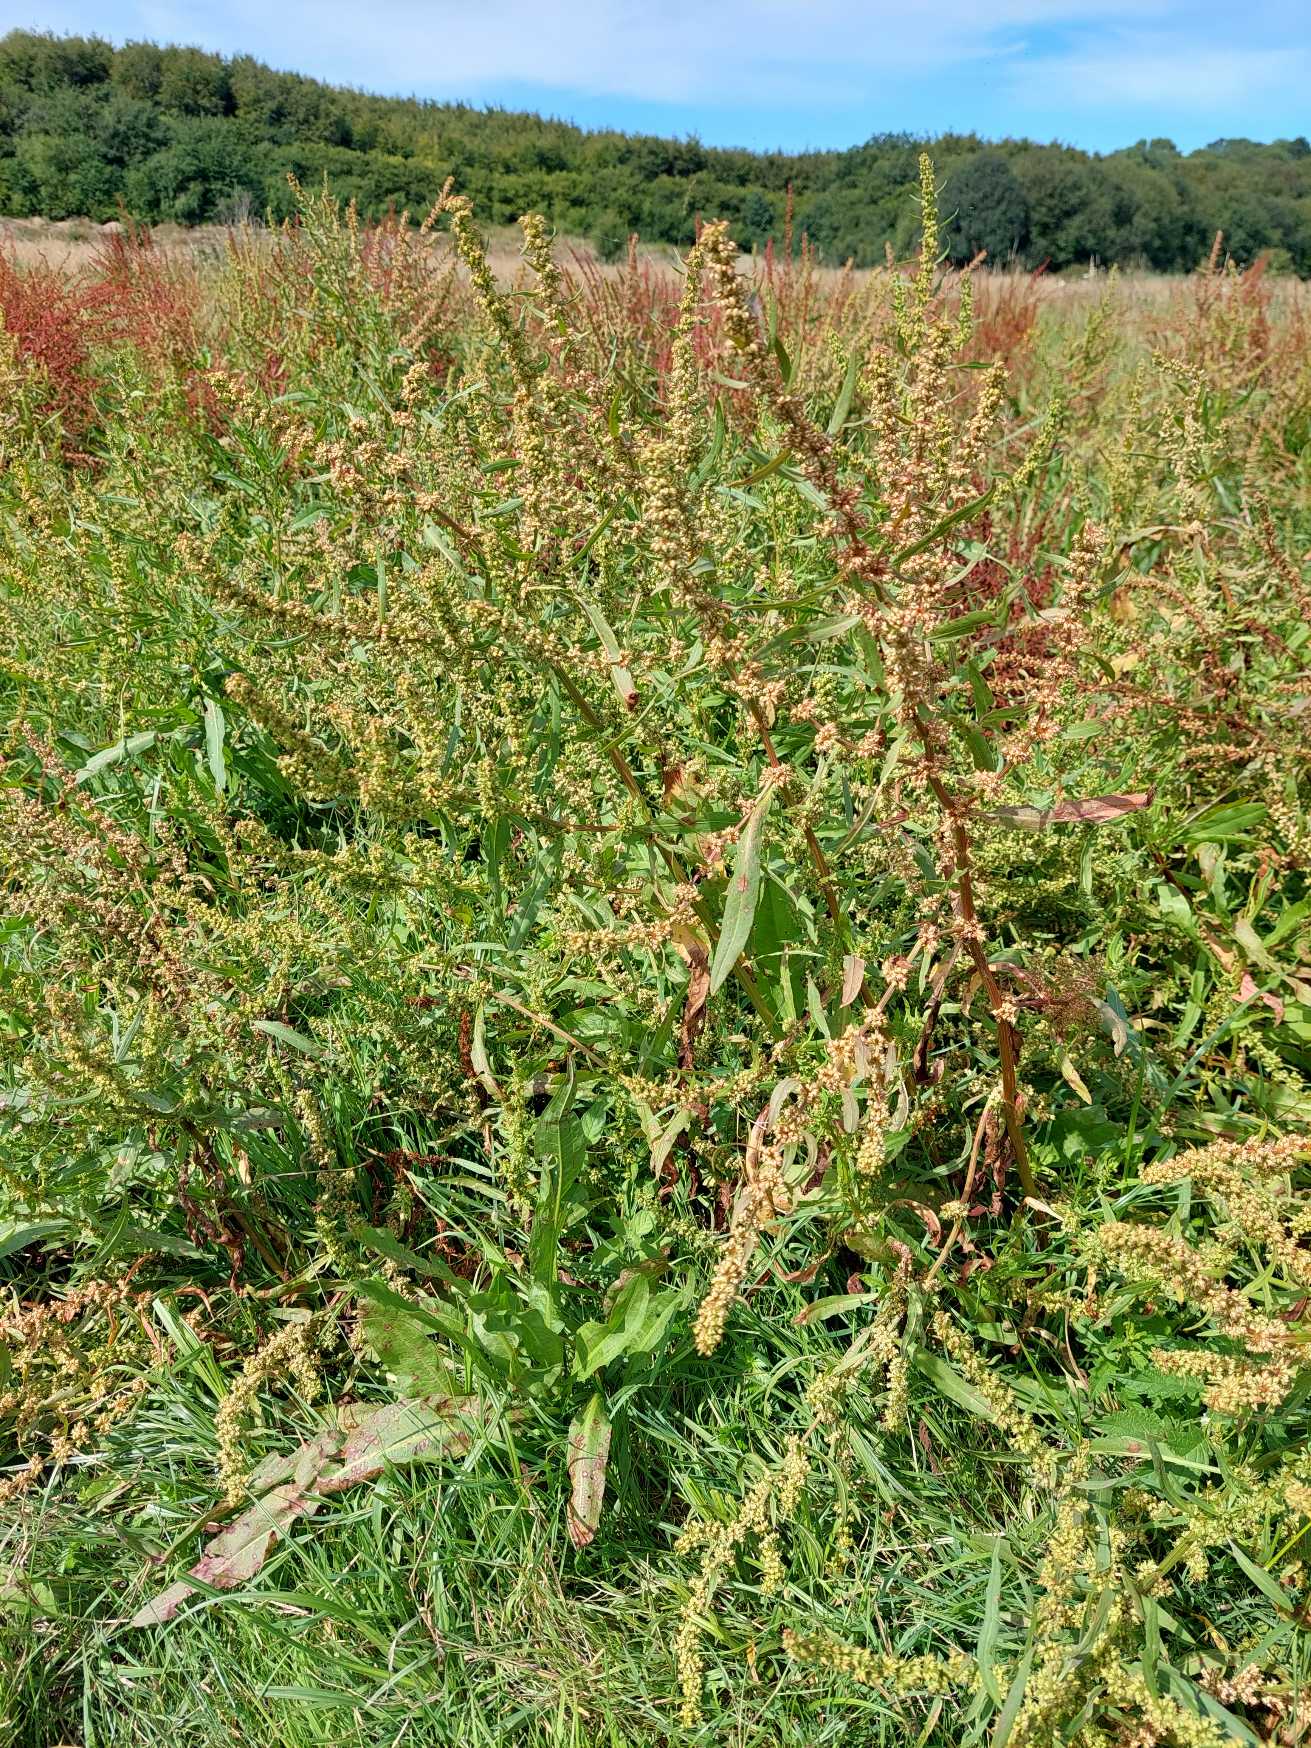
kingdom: Plantae
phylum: Tracheophyta
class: Magnoliopsida
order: Caryophyllales
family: Polygonaceae
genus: Rumex
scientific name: Rumex palustris
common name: Sump-skræppe
